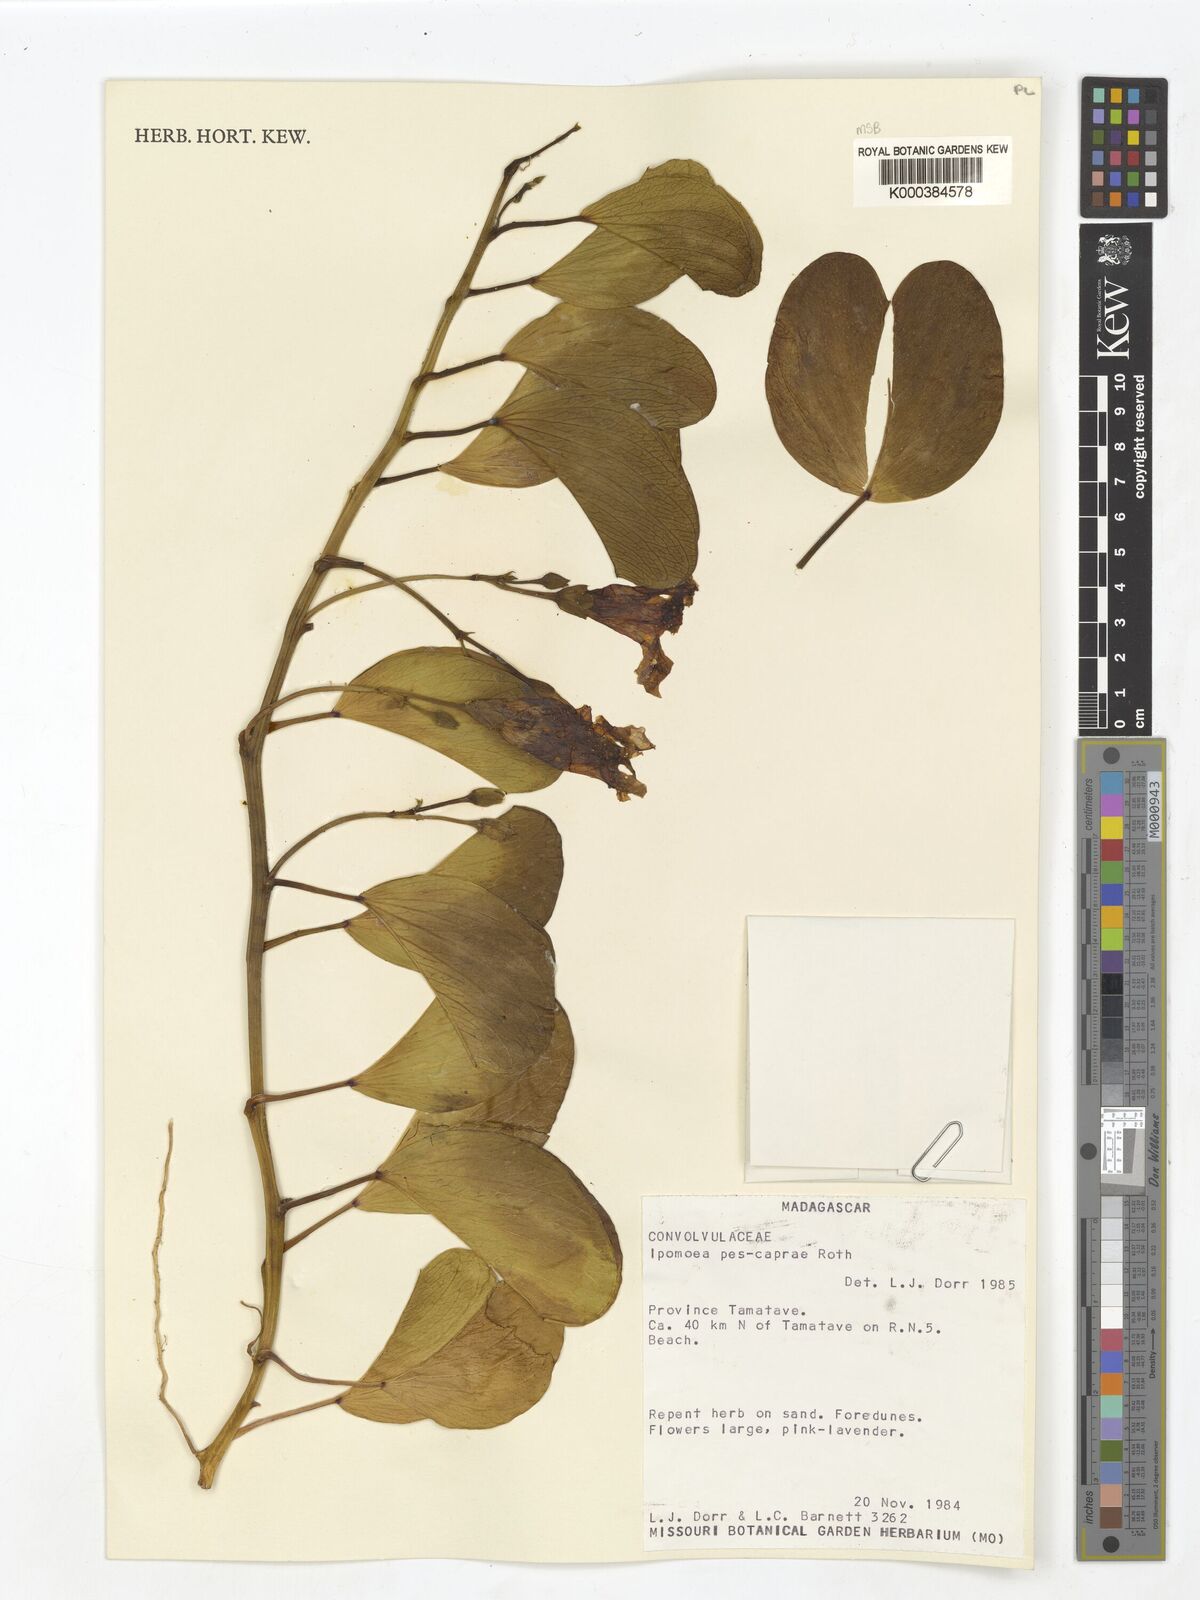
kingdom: Plantae
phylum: Tracheophyta
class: Magnoliopsida
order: Solanales
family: Convolvulaceae
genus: Ipomoea
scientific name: Ipomoea
